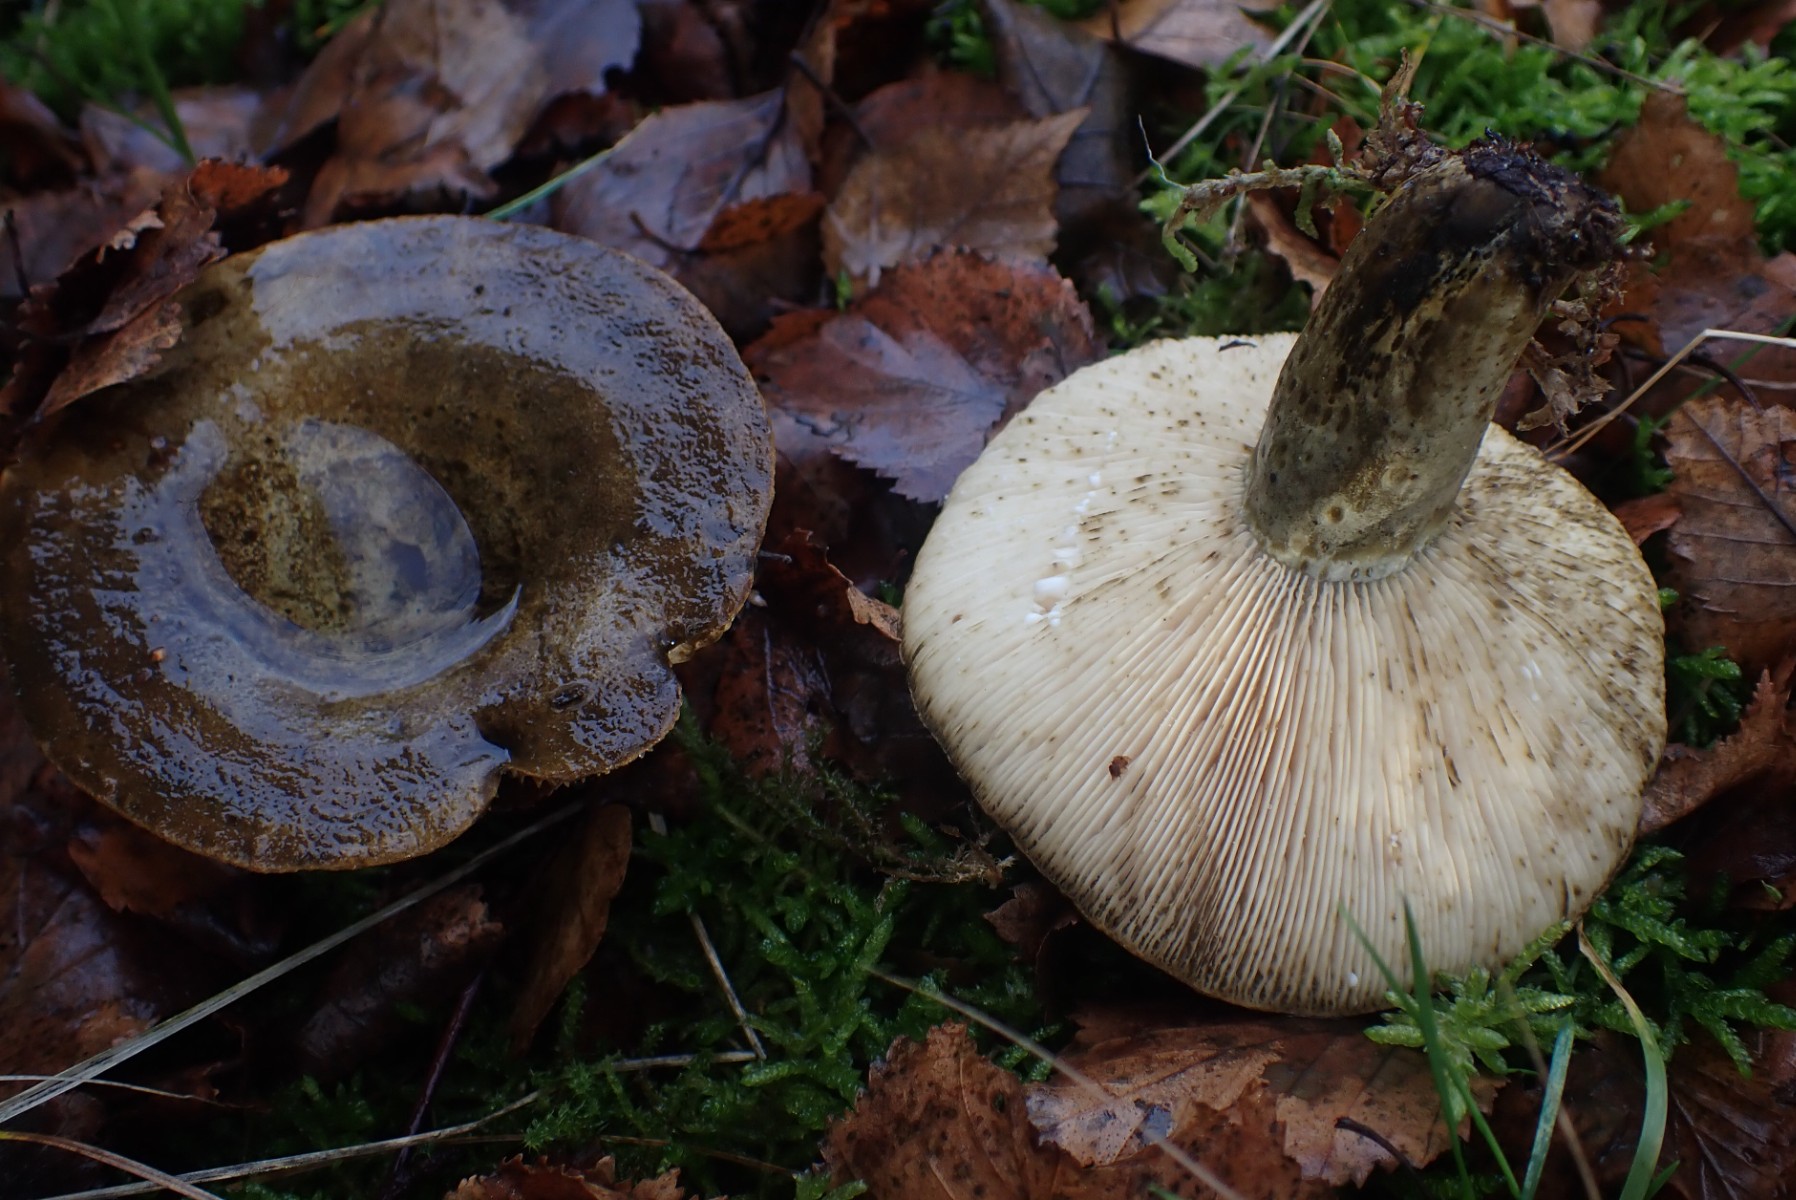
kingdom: Fungi
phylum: Basidiomycota
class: Agaricomycetes
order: Russulales
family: Russulaceae
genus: Lactarius
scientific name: Lactarius necator
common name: manddraber-mælkehat
